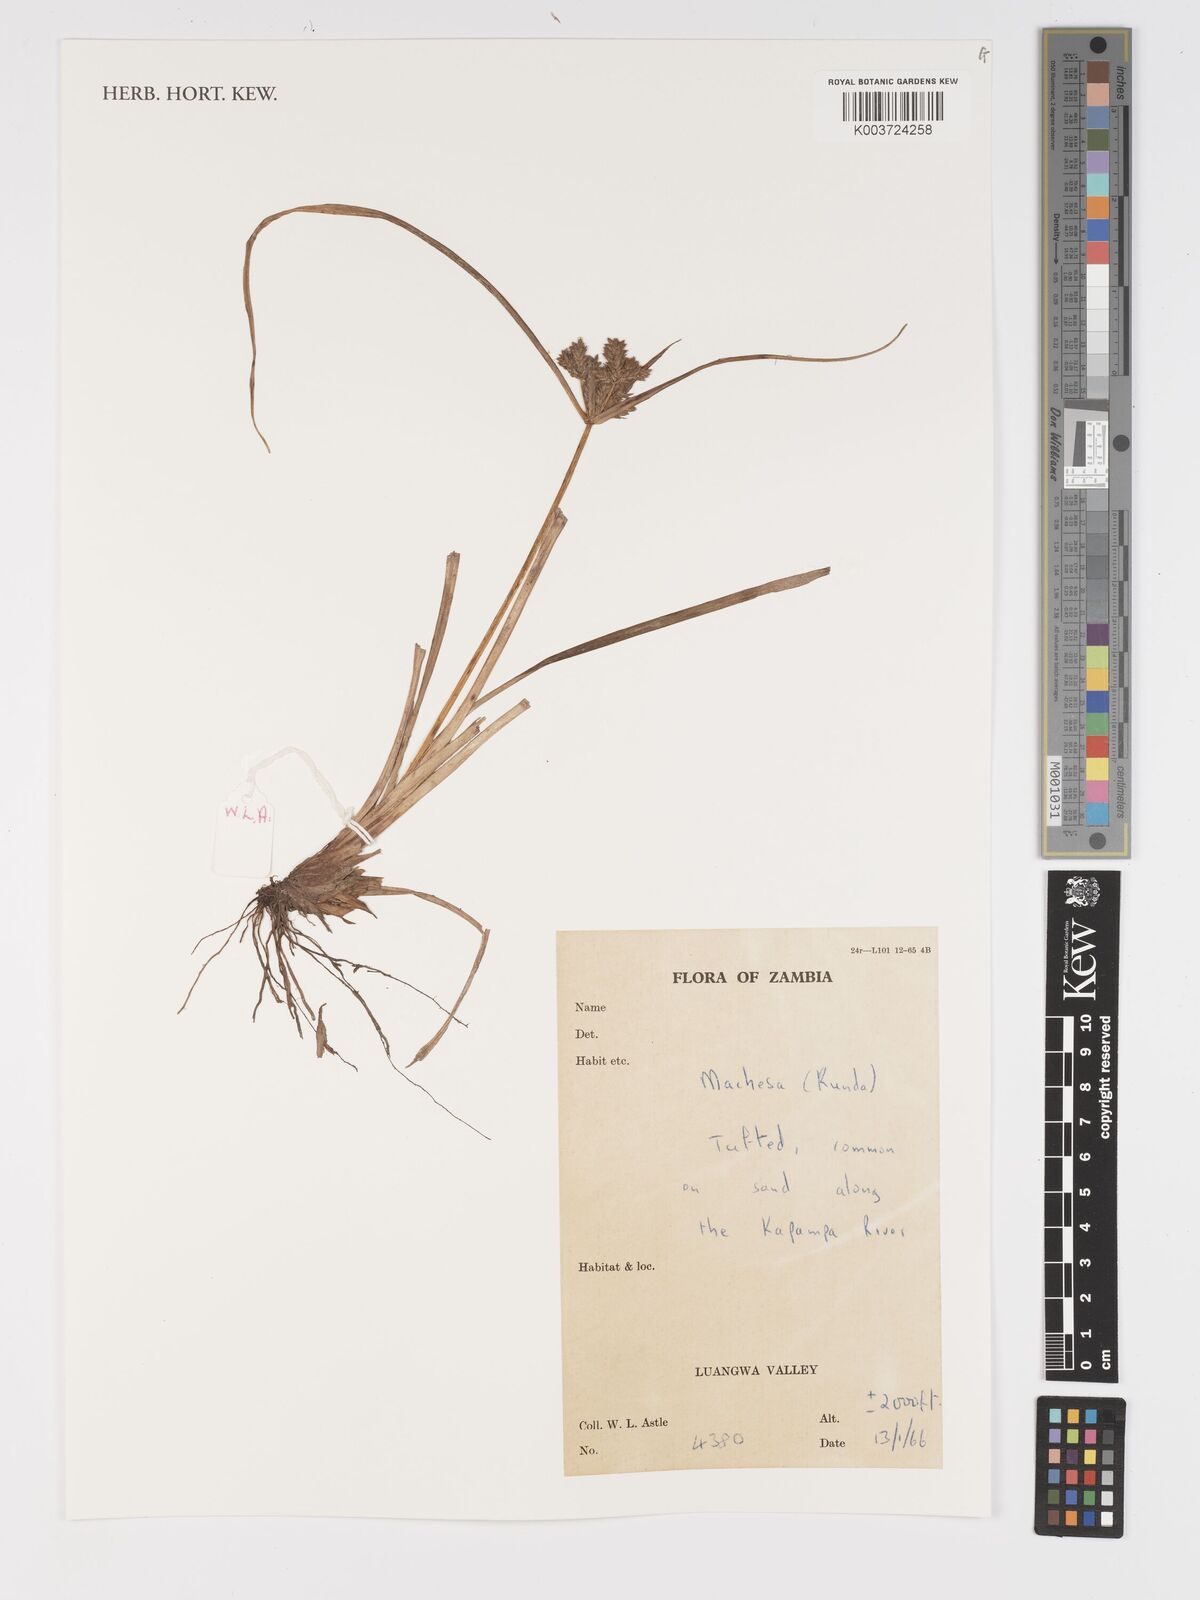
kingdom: Plantae
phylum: Tracheophyta
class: Liliopsida
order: Poales
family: Cyperaceae
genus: Cyperus
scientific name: Cyperus
